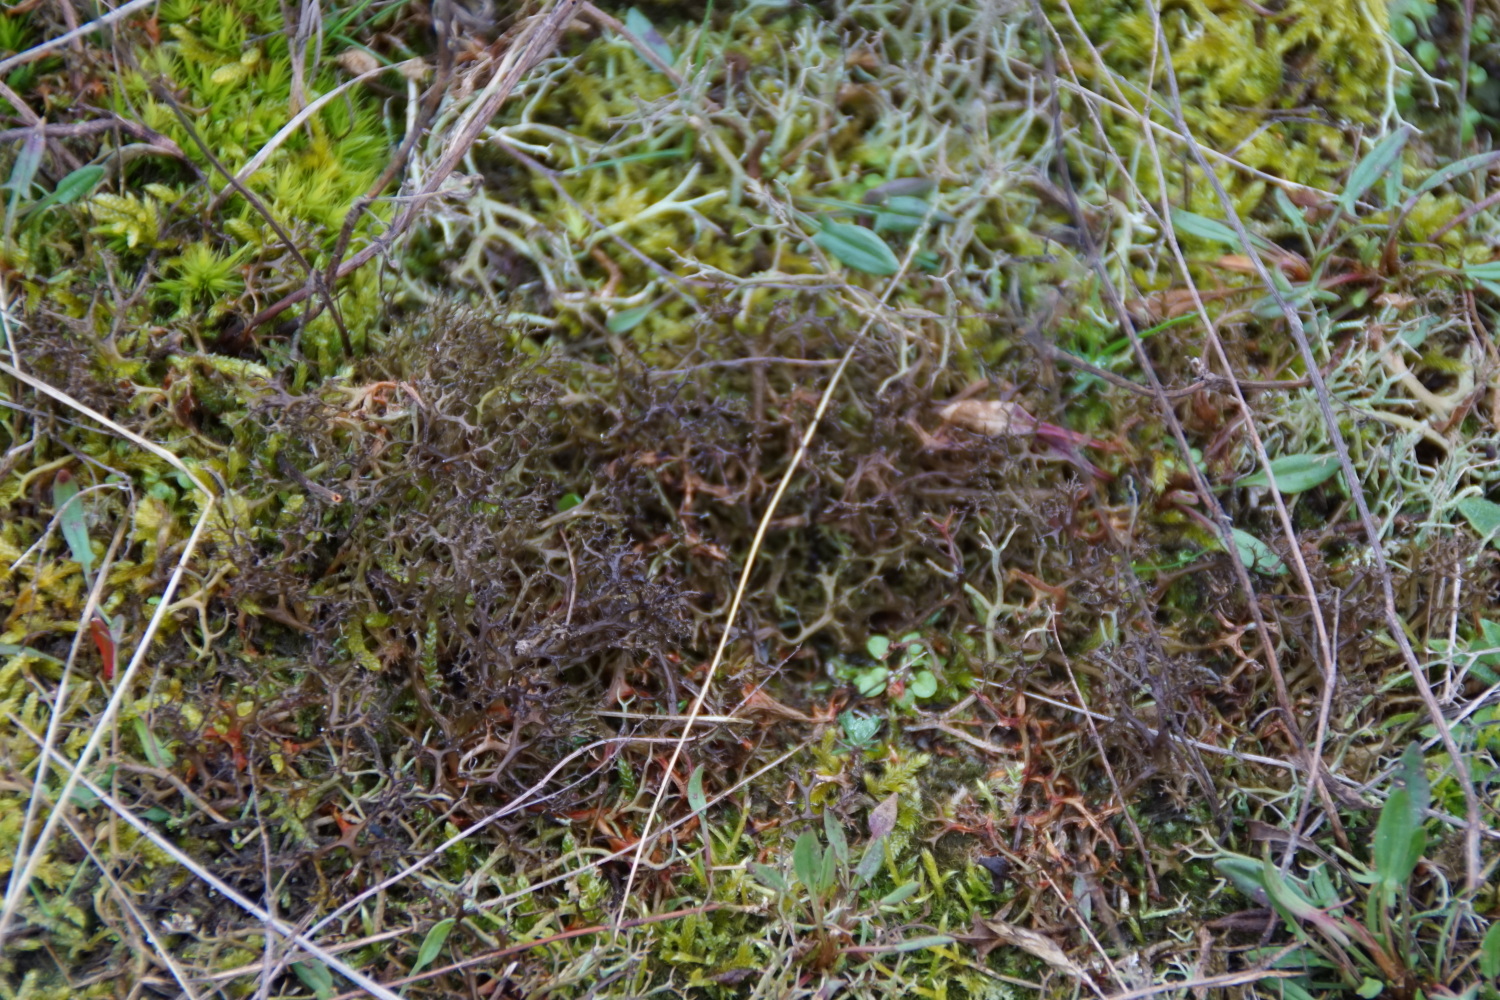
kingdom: Fungi
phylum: Ascomycota
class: Lecanoromycetes
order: Lecanorales
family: Parmeliaceae
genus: Cetraria
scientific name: Cetraria aculeata
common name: grubet tjørnelav
